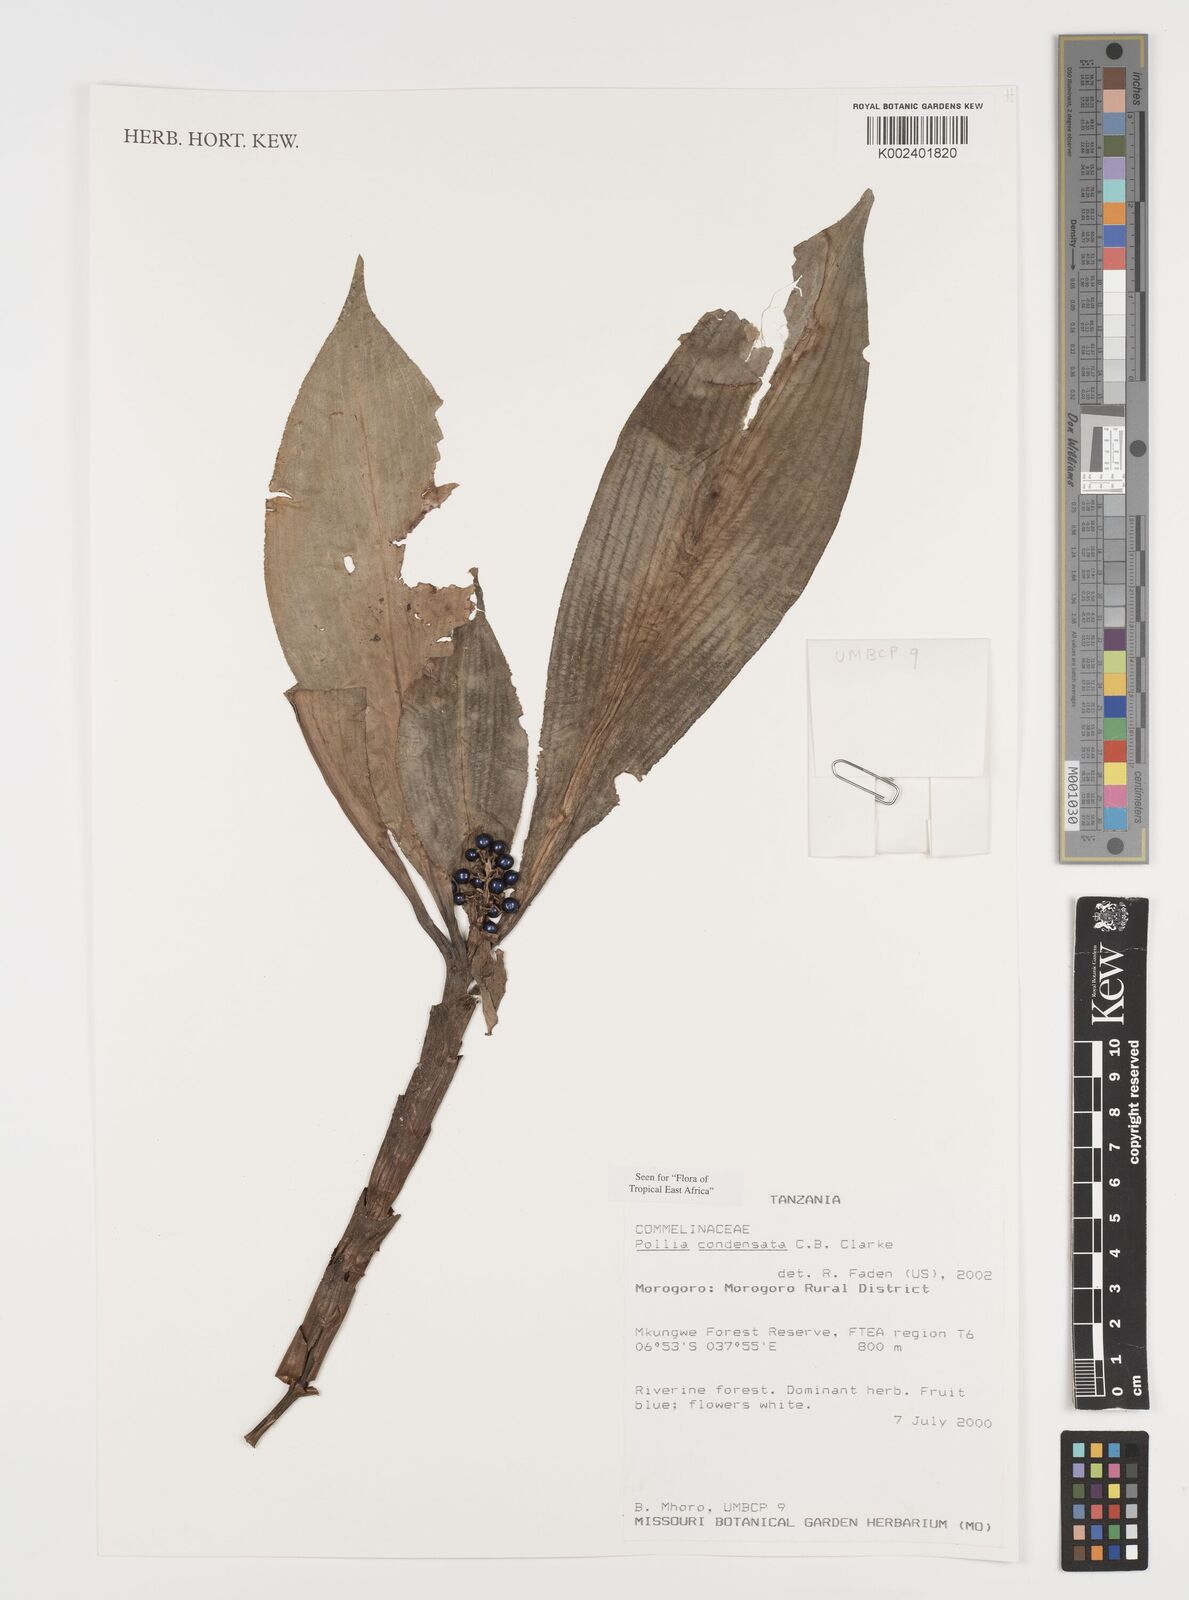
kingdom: Plantae
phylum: Tracheophyta
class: Liliopsida
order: Commelinales
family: Commelinaceae
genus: Pollia
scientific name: Pollia condensata
